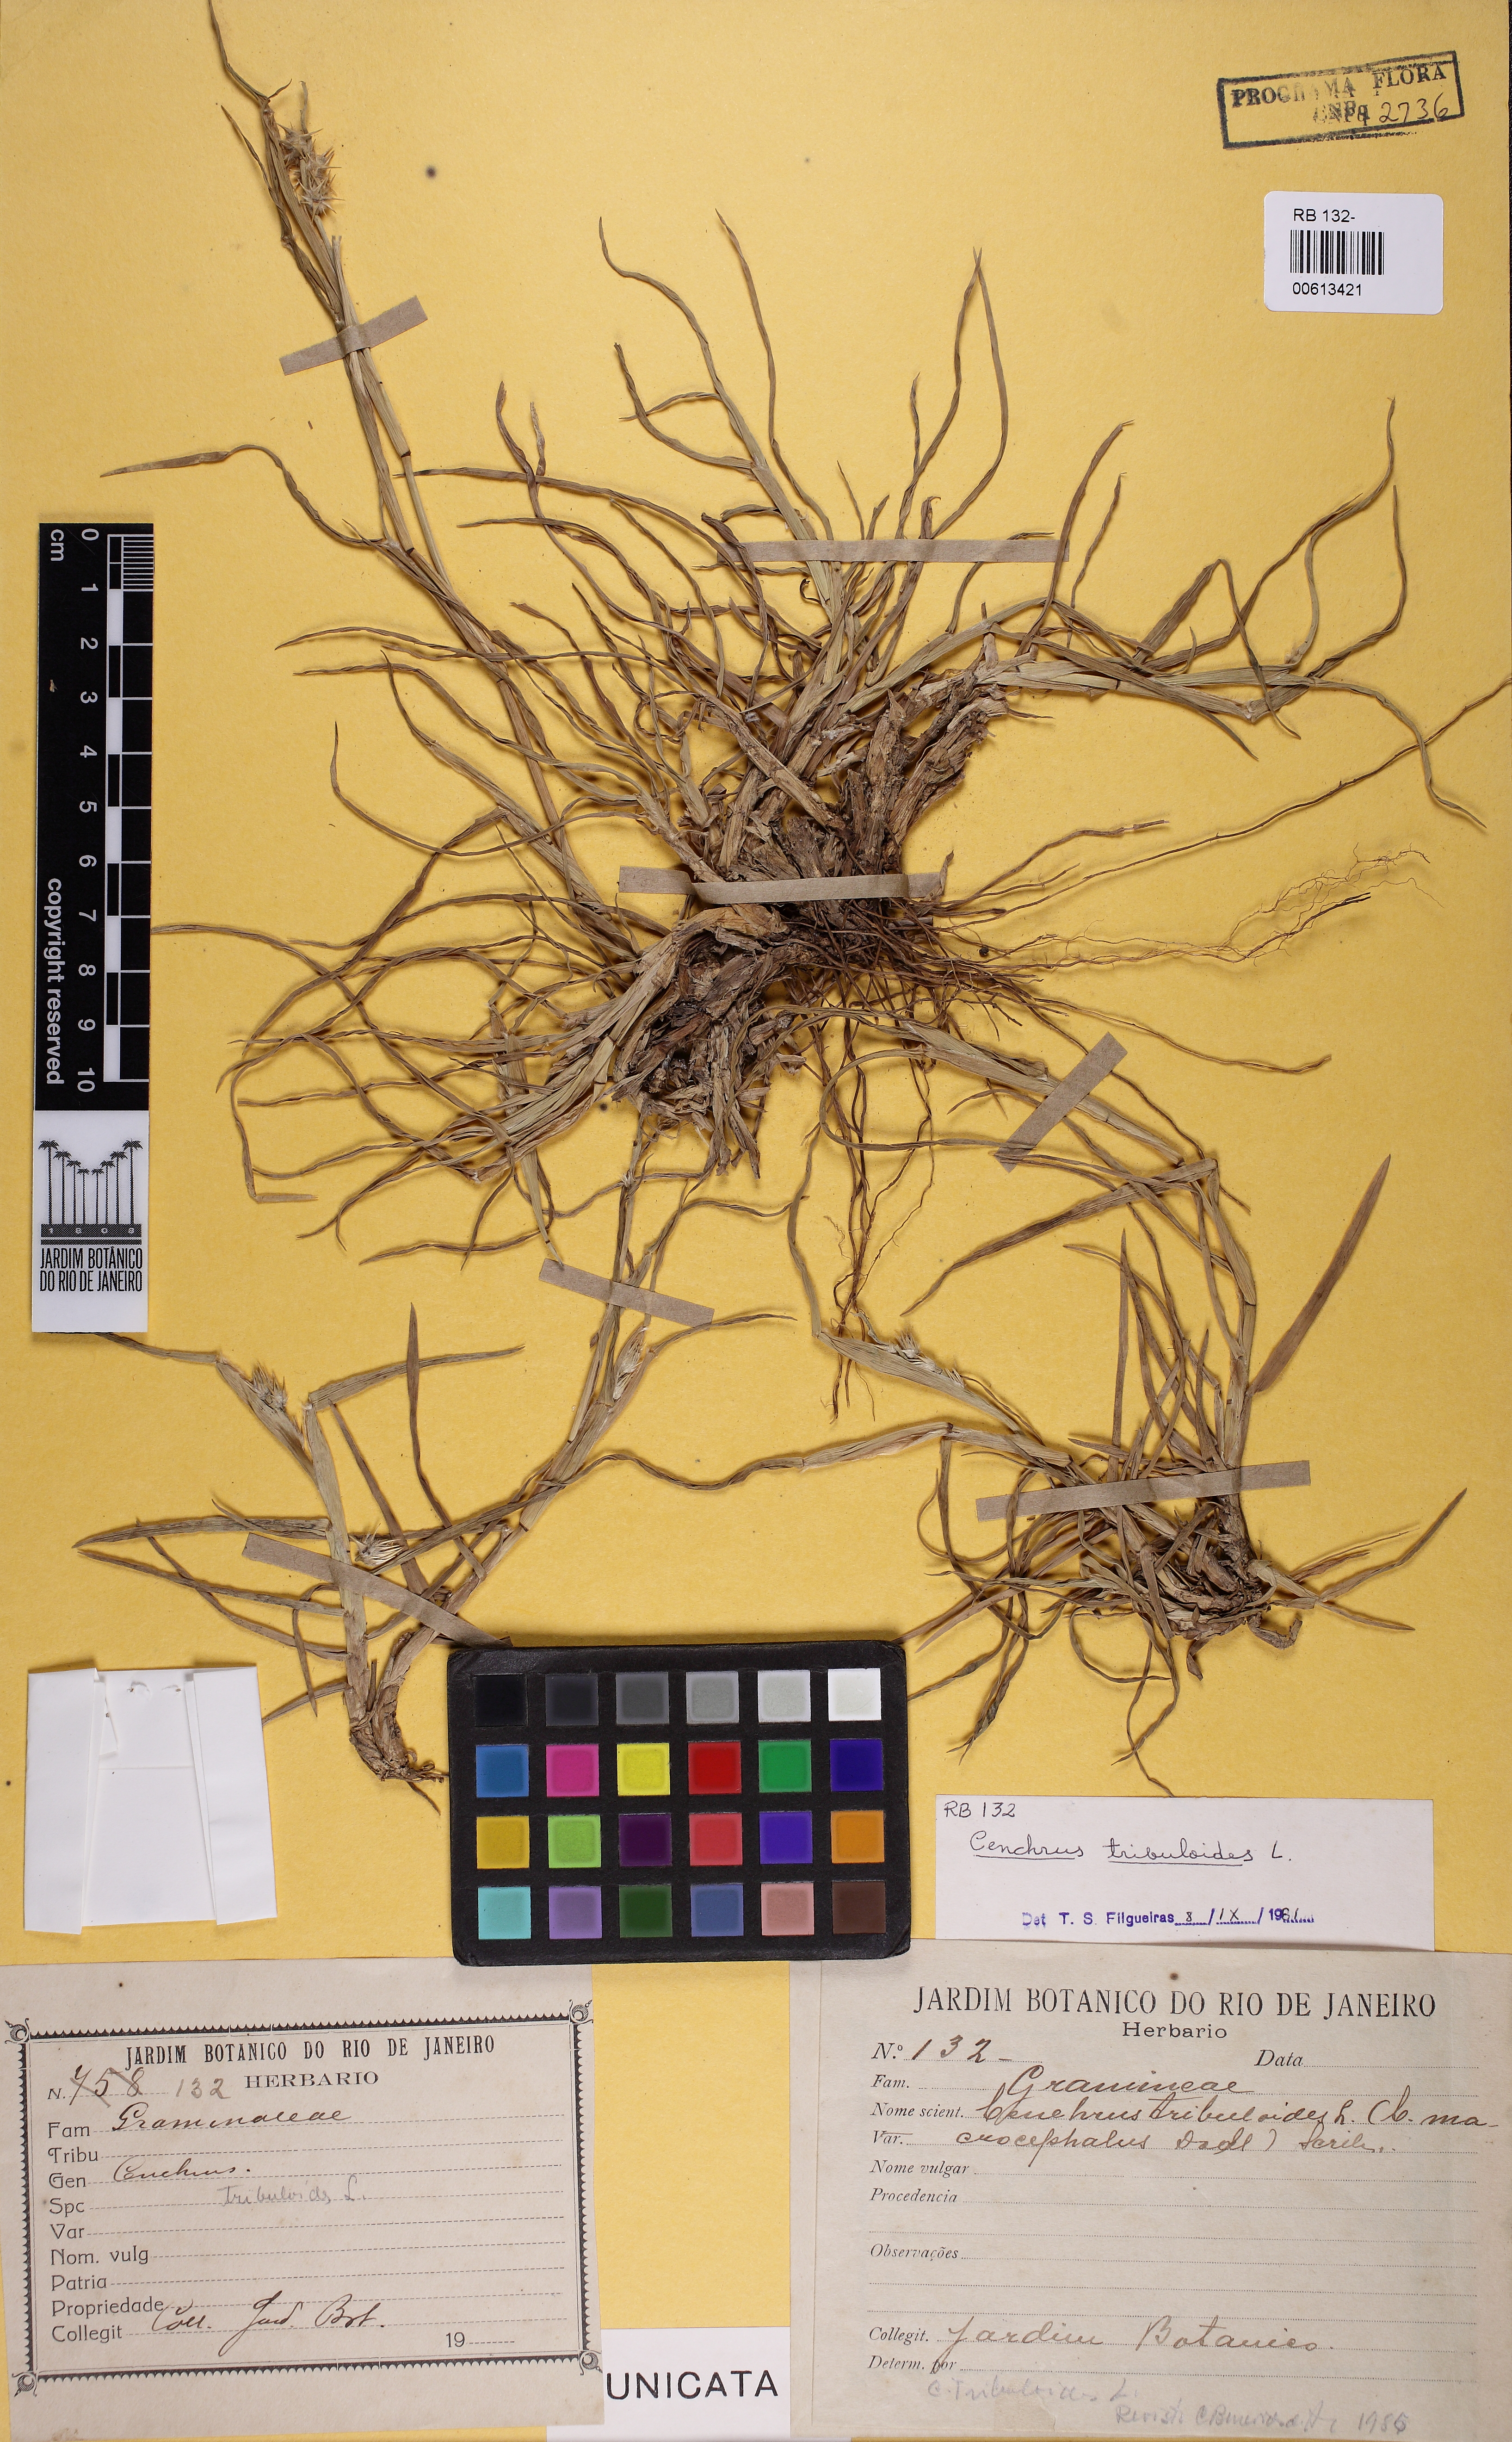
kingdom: Plantae
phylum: Tracheophyta
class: Liliopsida
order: Poales
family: Poaceae
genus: Cenchrus
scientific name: Cenchrus tribuloides
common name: Dune sandbur
